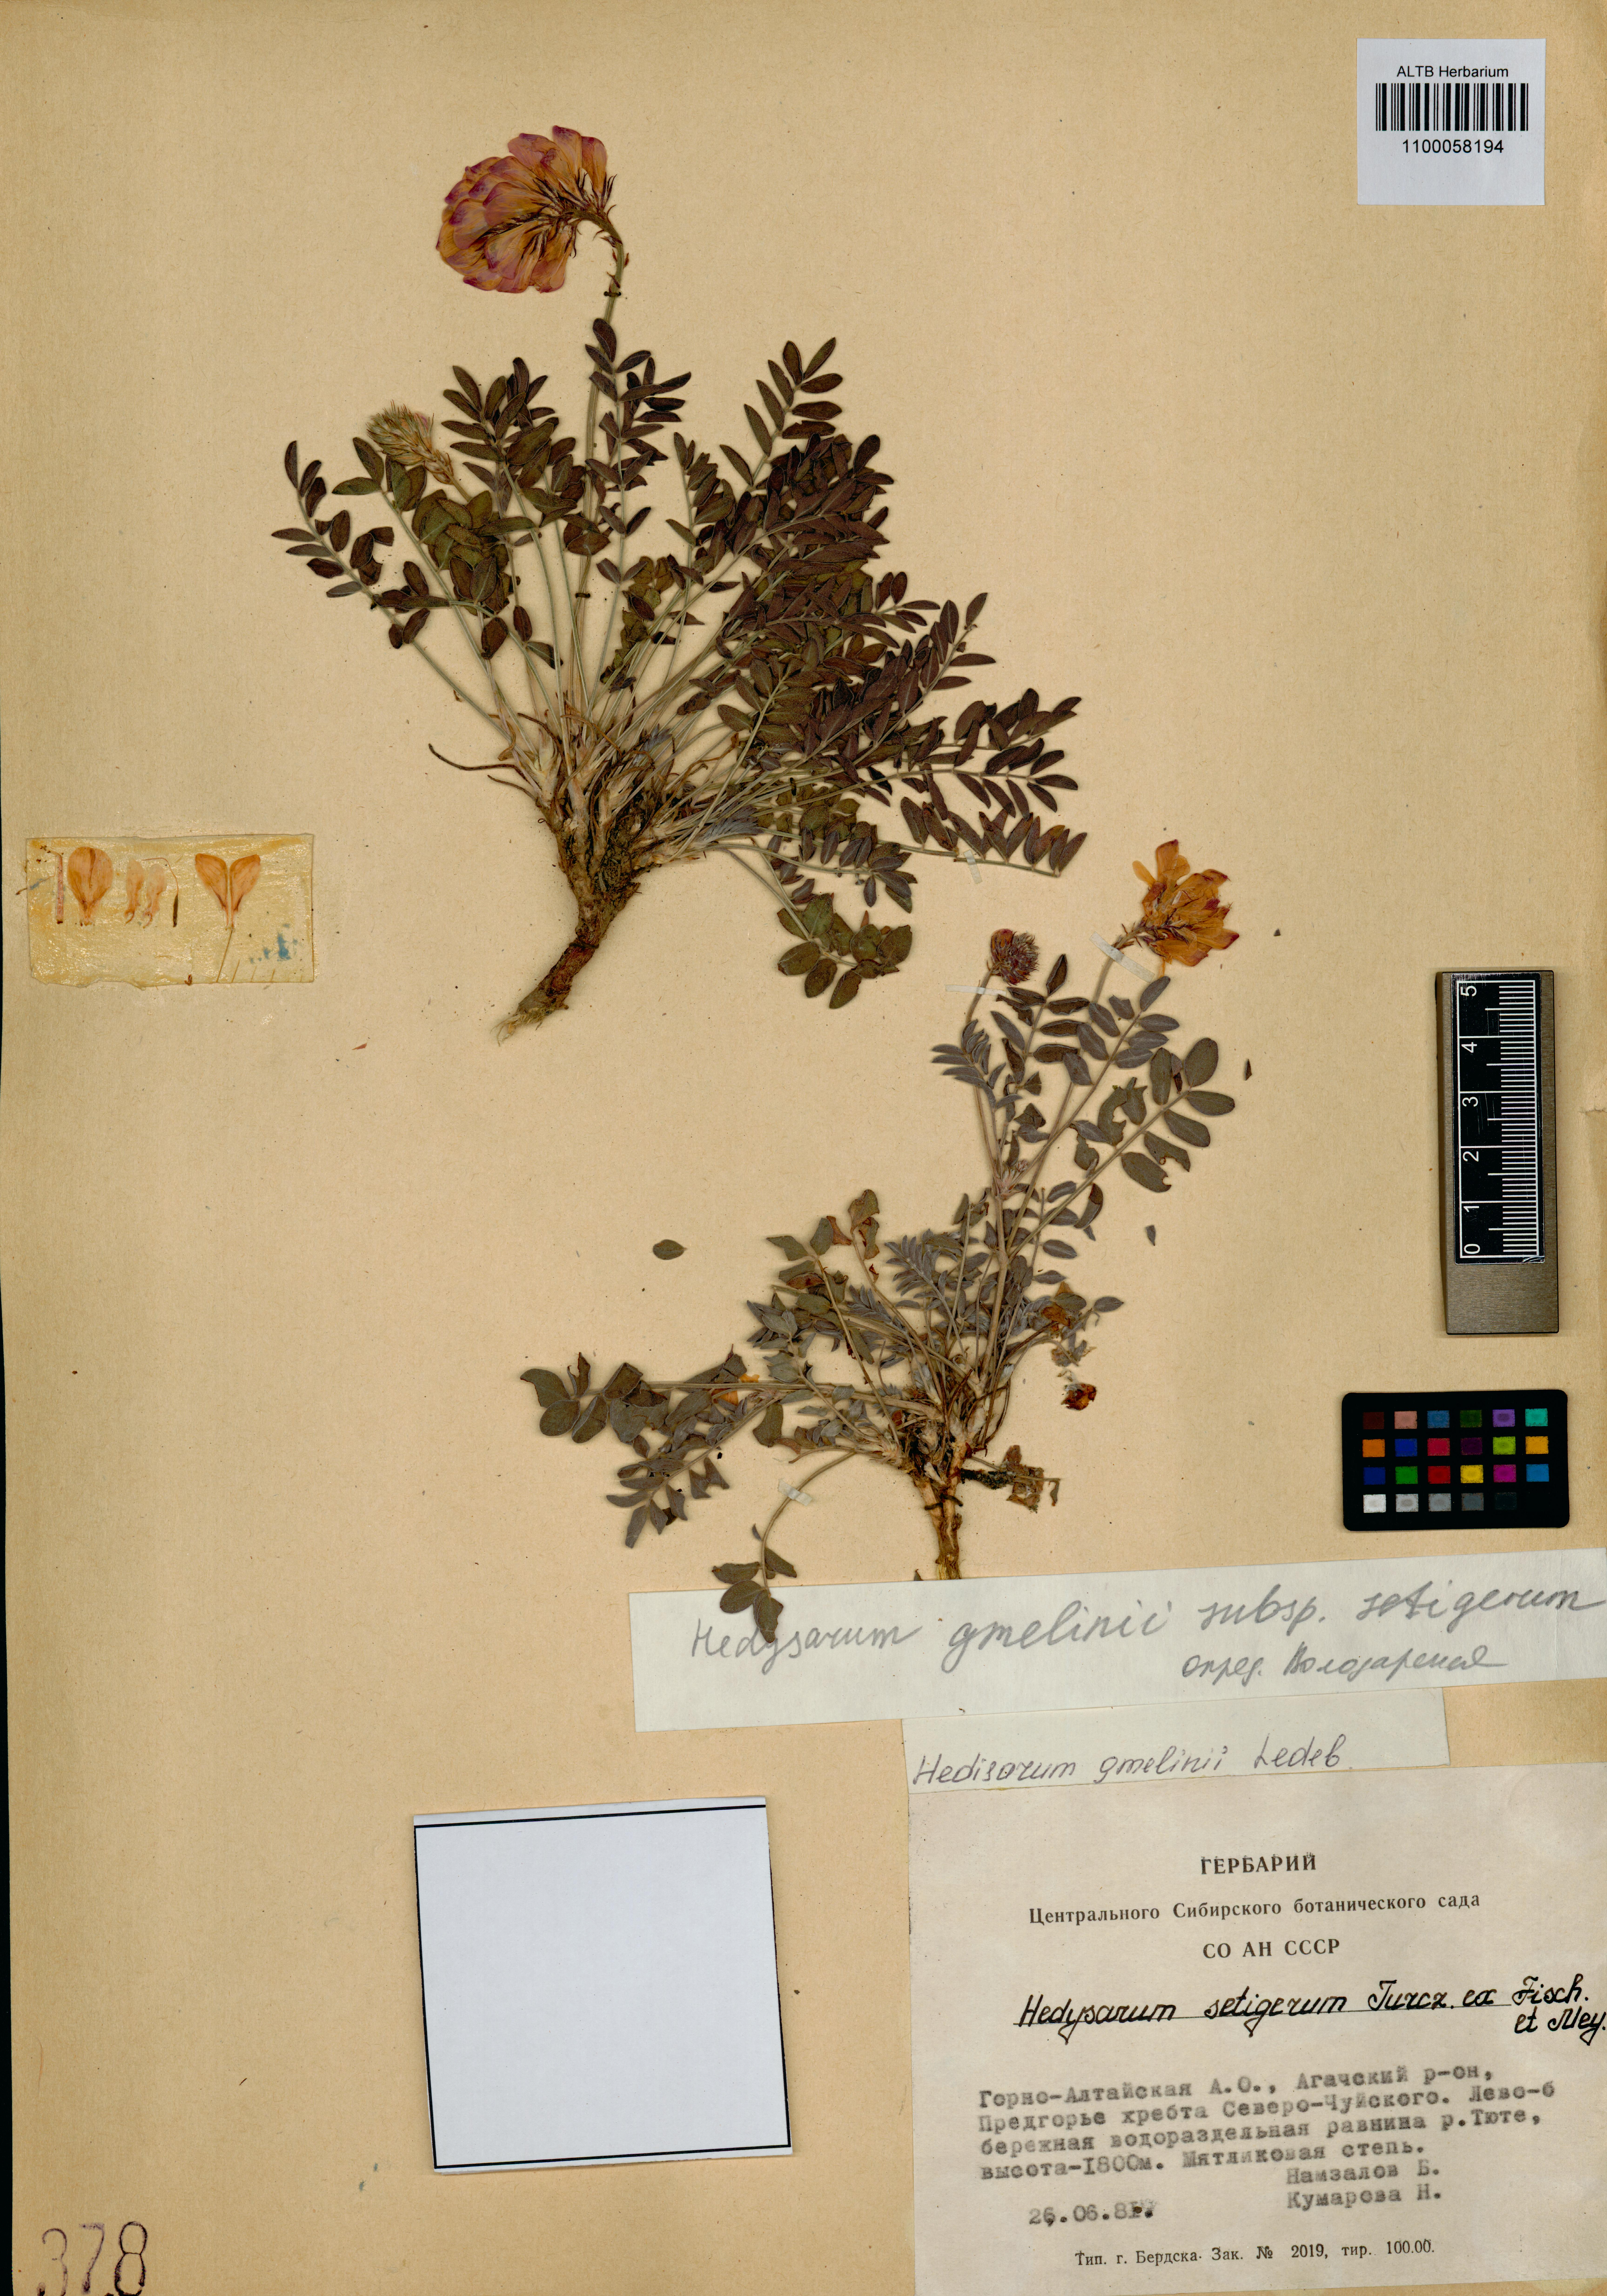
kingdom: Plantae
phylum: Tracheophyta
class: Magnoliopsida
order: Fabales
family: Fabaceae
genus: Hedysarum
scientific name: Hedysarum gmelinii
